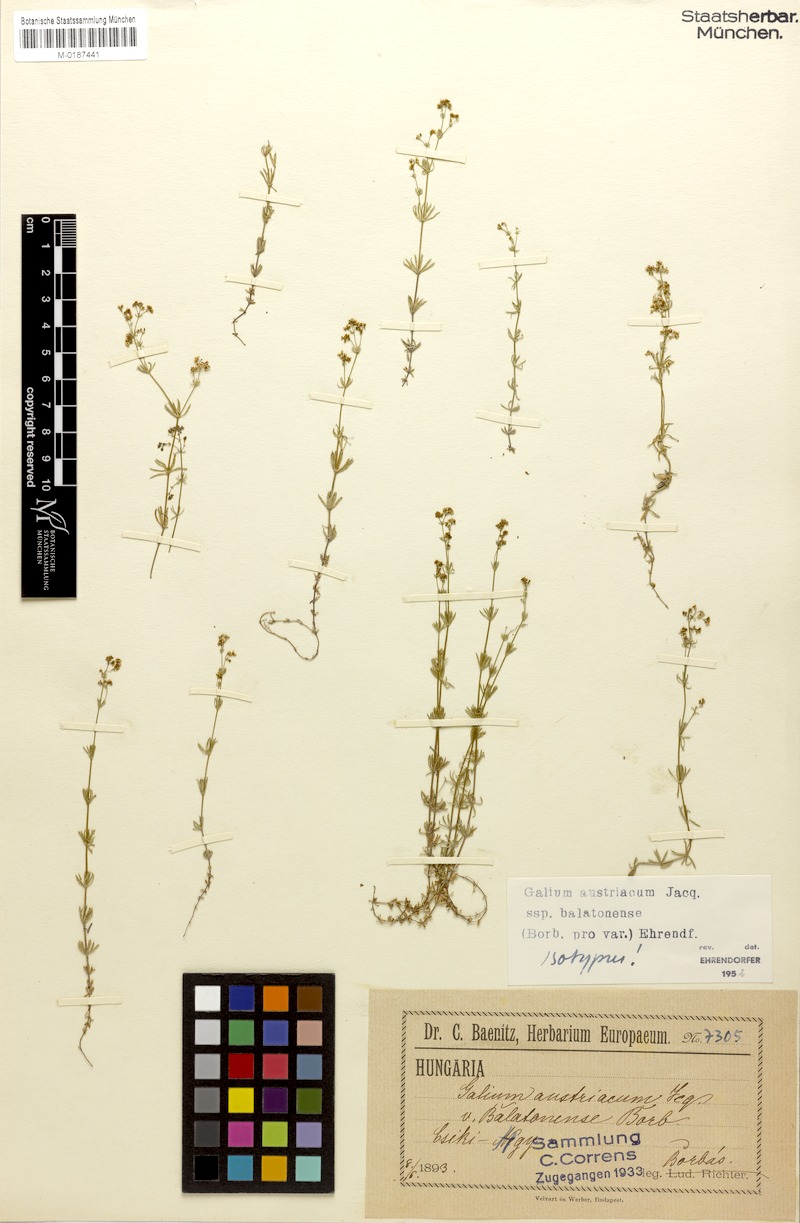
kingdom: Plantae
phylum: Tracheophyta
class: Magnoliopsida
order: Gentianales
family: Rubiaceae
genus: Galium
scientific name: Galium austriacum
